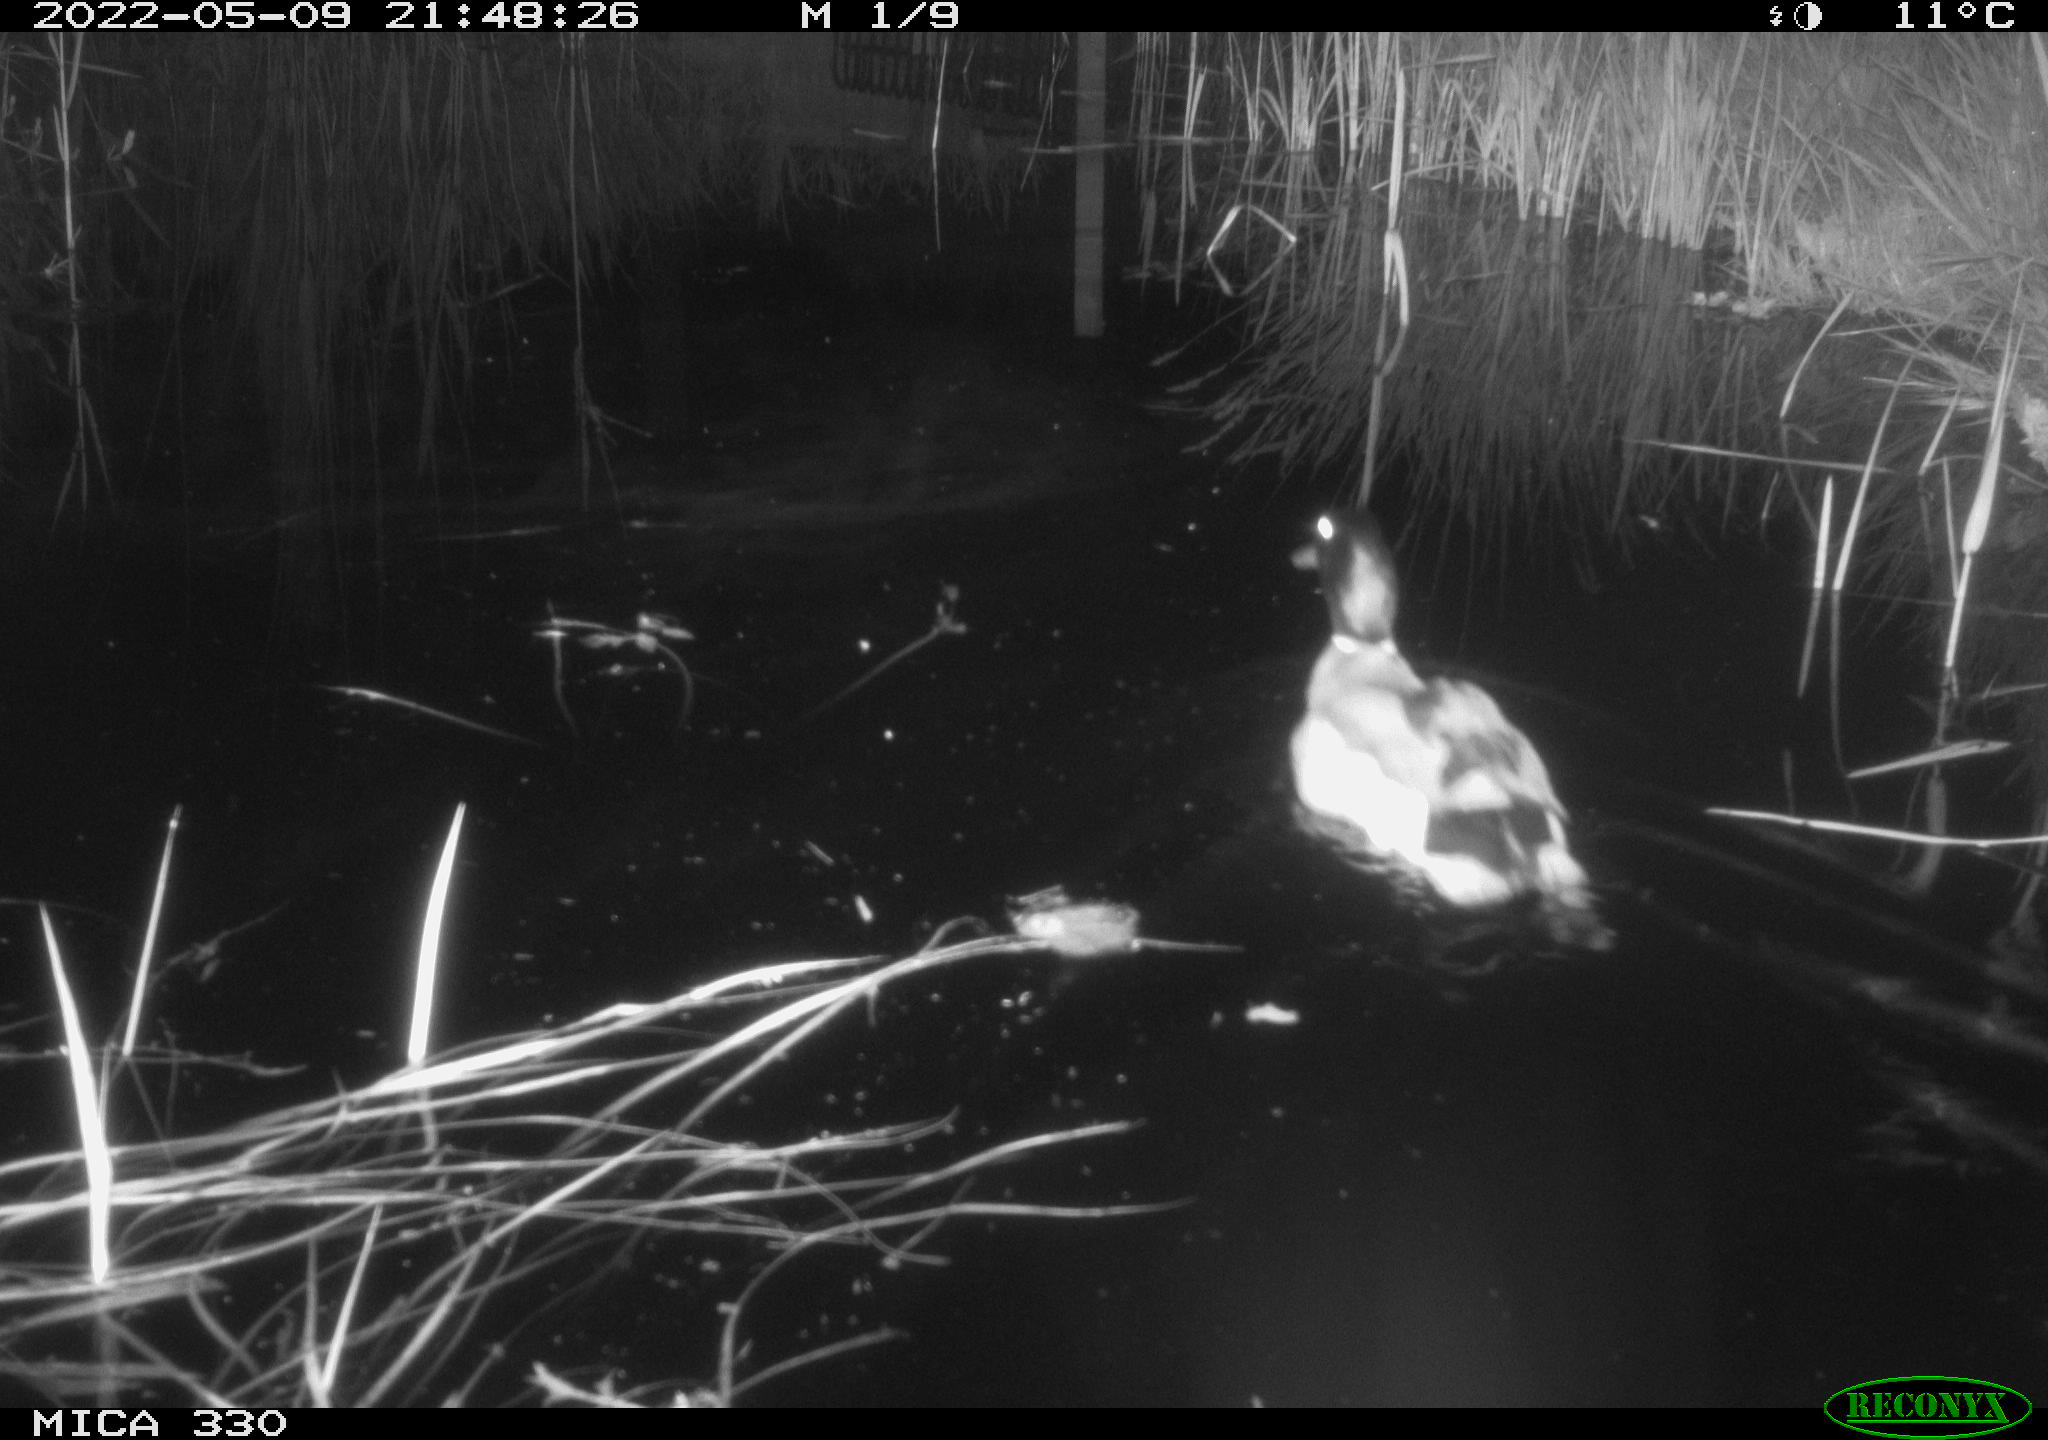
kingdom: Animalia
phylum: Chordata
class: Aves
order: Anseriformes
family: Anatidae
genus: Anas
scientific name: Anas platyrhynchos
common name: Mallard
